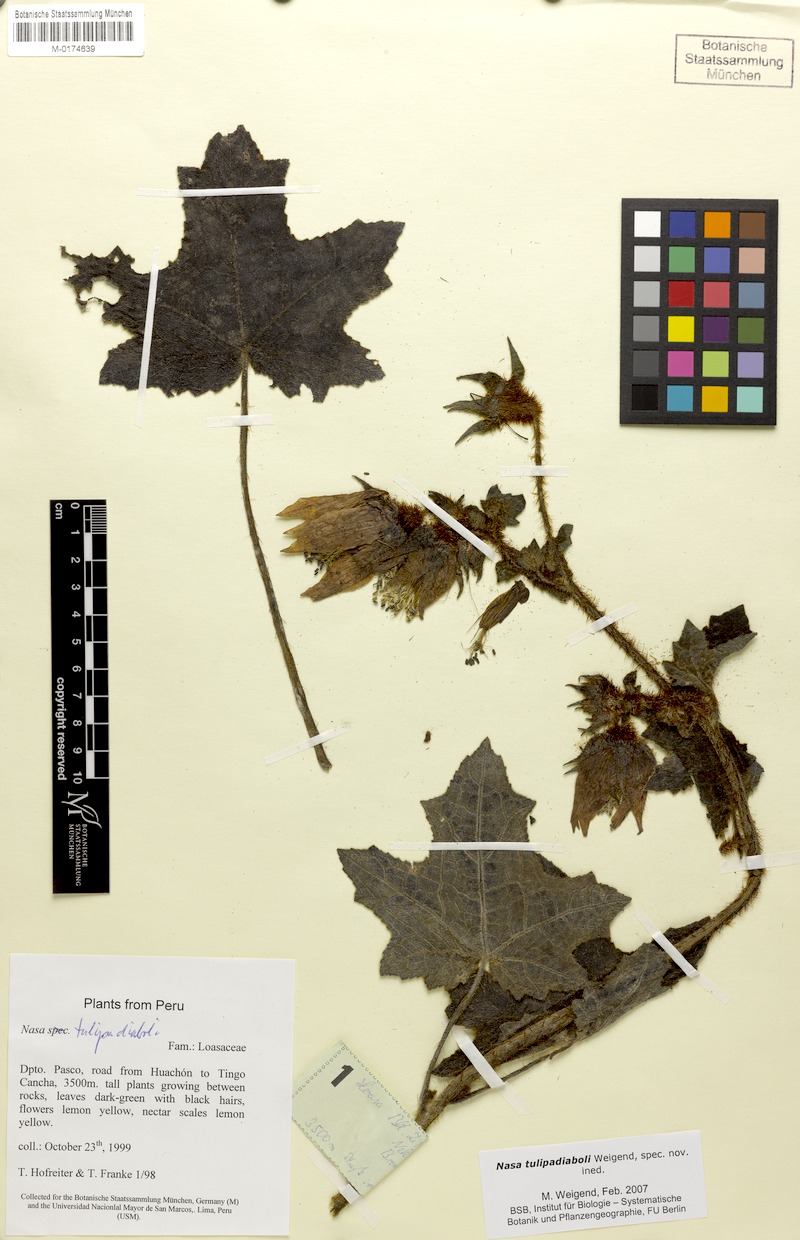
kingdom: Plantae
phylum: Tracheophyta
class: Magnoliopsida
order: Cornales
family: Loasaceae
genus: Nasa
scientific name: Nasa tulipadiaboli
